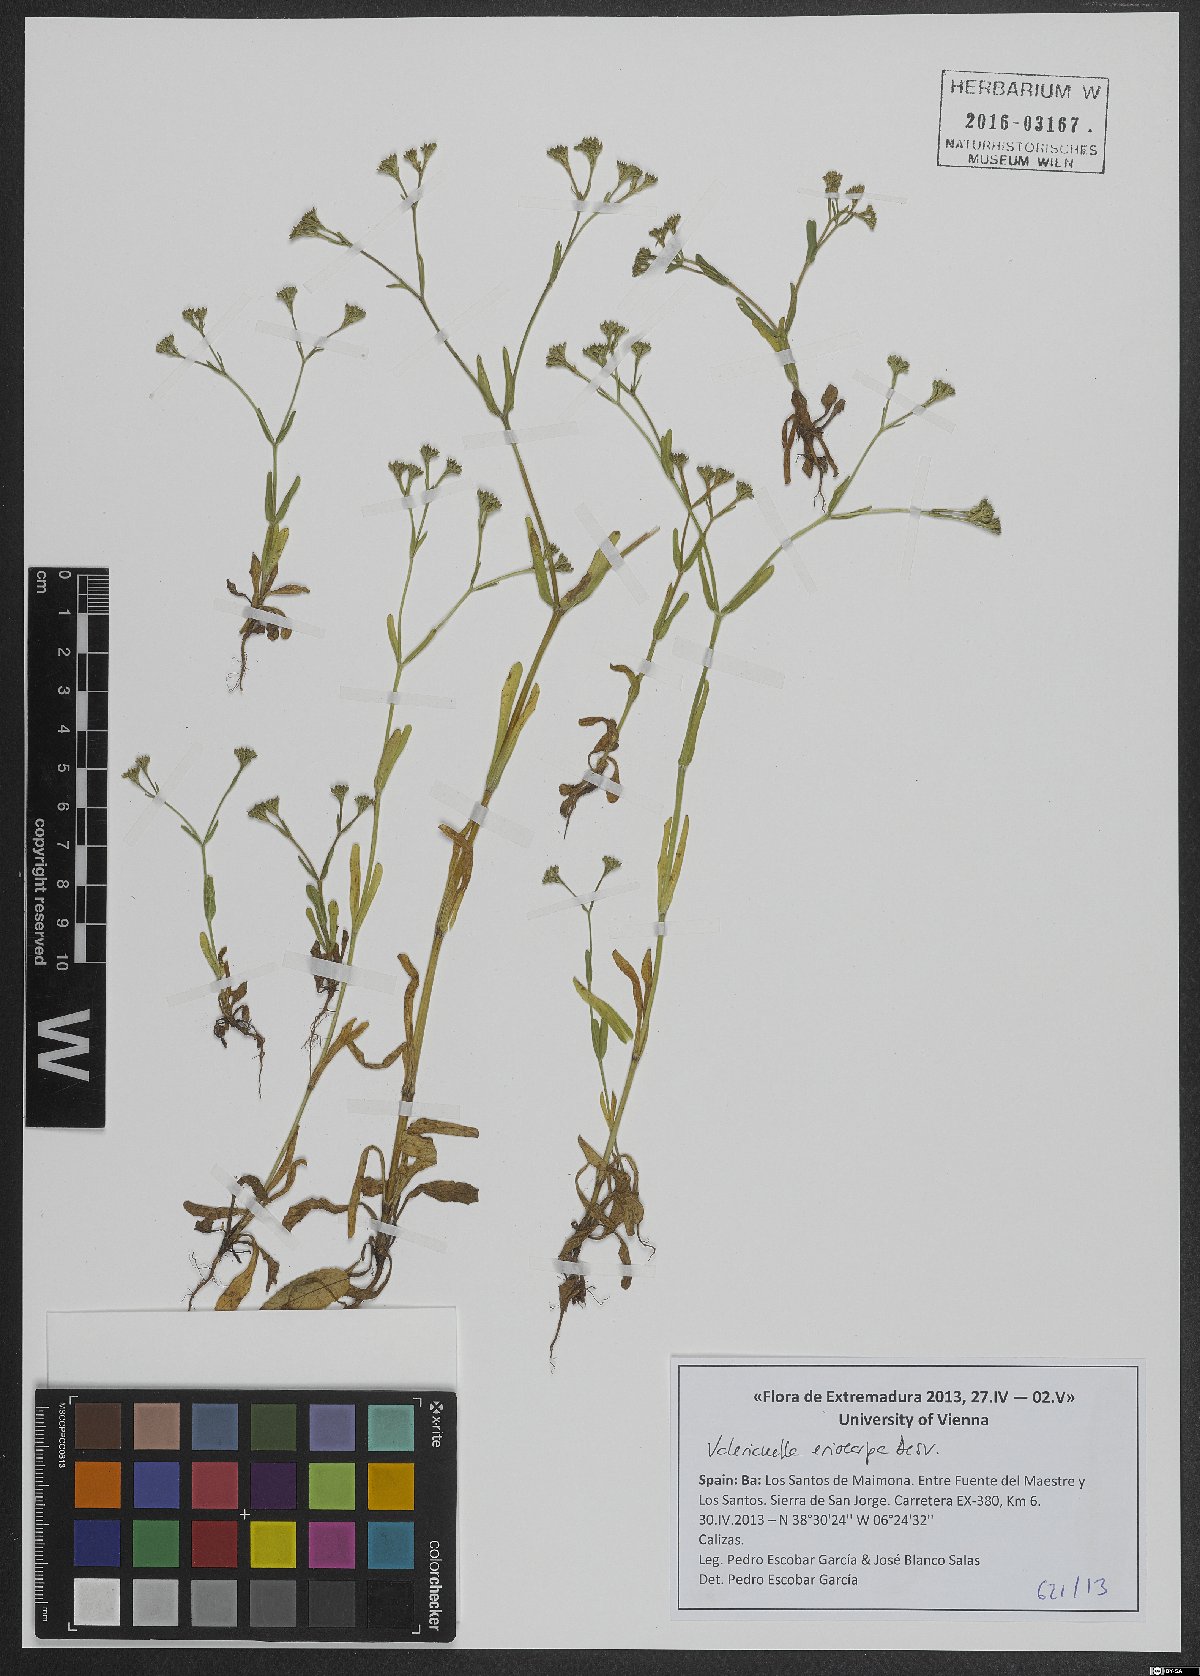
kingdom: Plantae
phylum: Tracheophyta
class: Magnoliopsida
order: Dipsacales
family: Caprifoliaceae
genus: Valerianella
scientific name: Valerianella eriocarpa
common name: Hairy-fruited cornsalad
